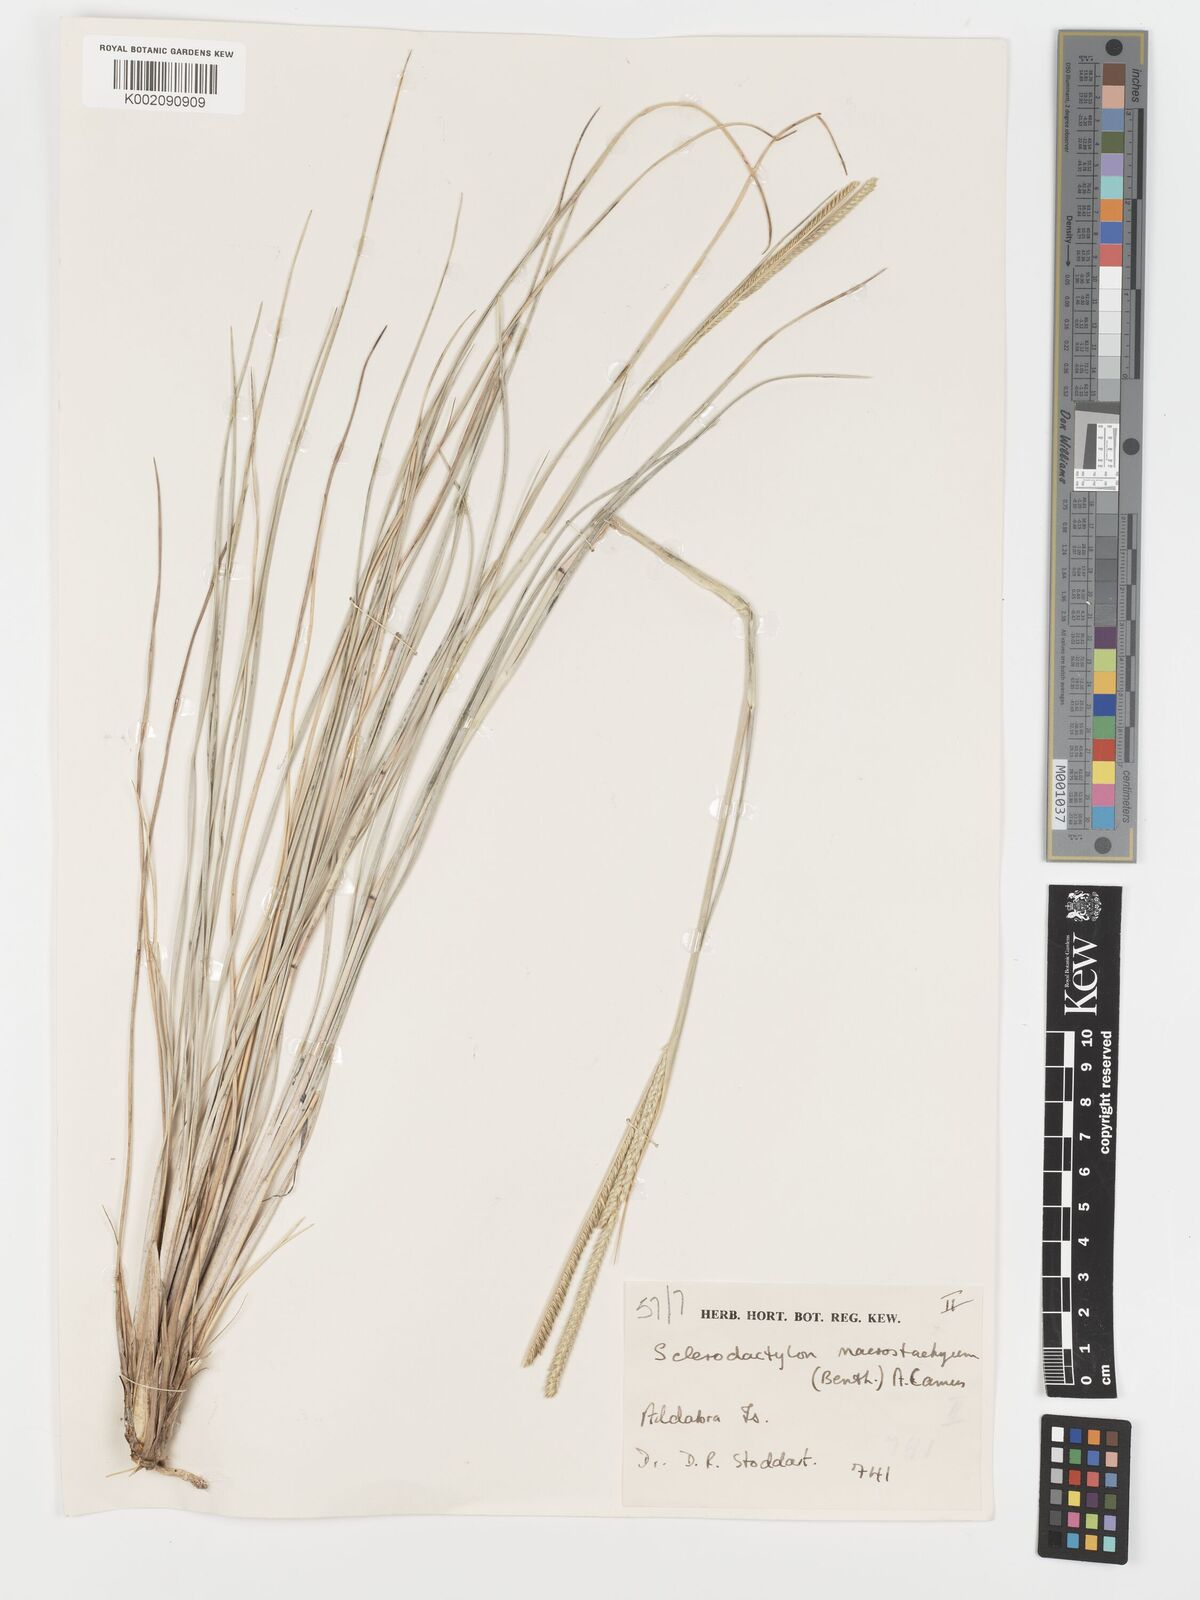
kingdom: Plantae
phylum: Tracheophyta
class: Liliopsida
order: Poales
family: Poaceae
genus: Sclerodactylon
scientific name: Sclerodactylon macrostachyum
